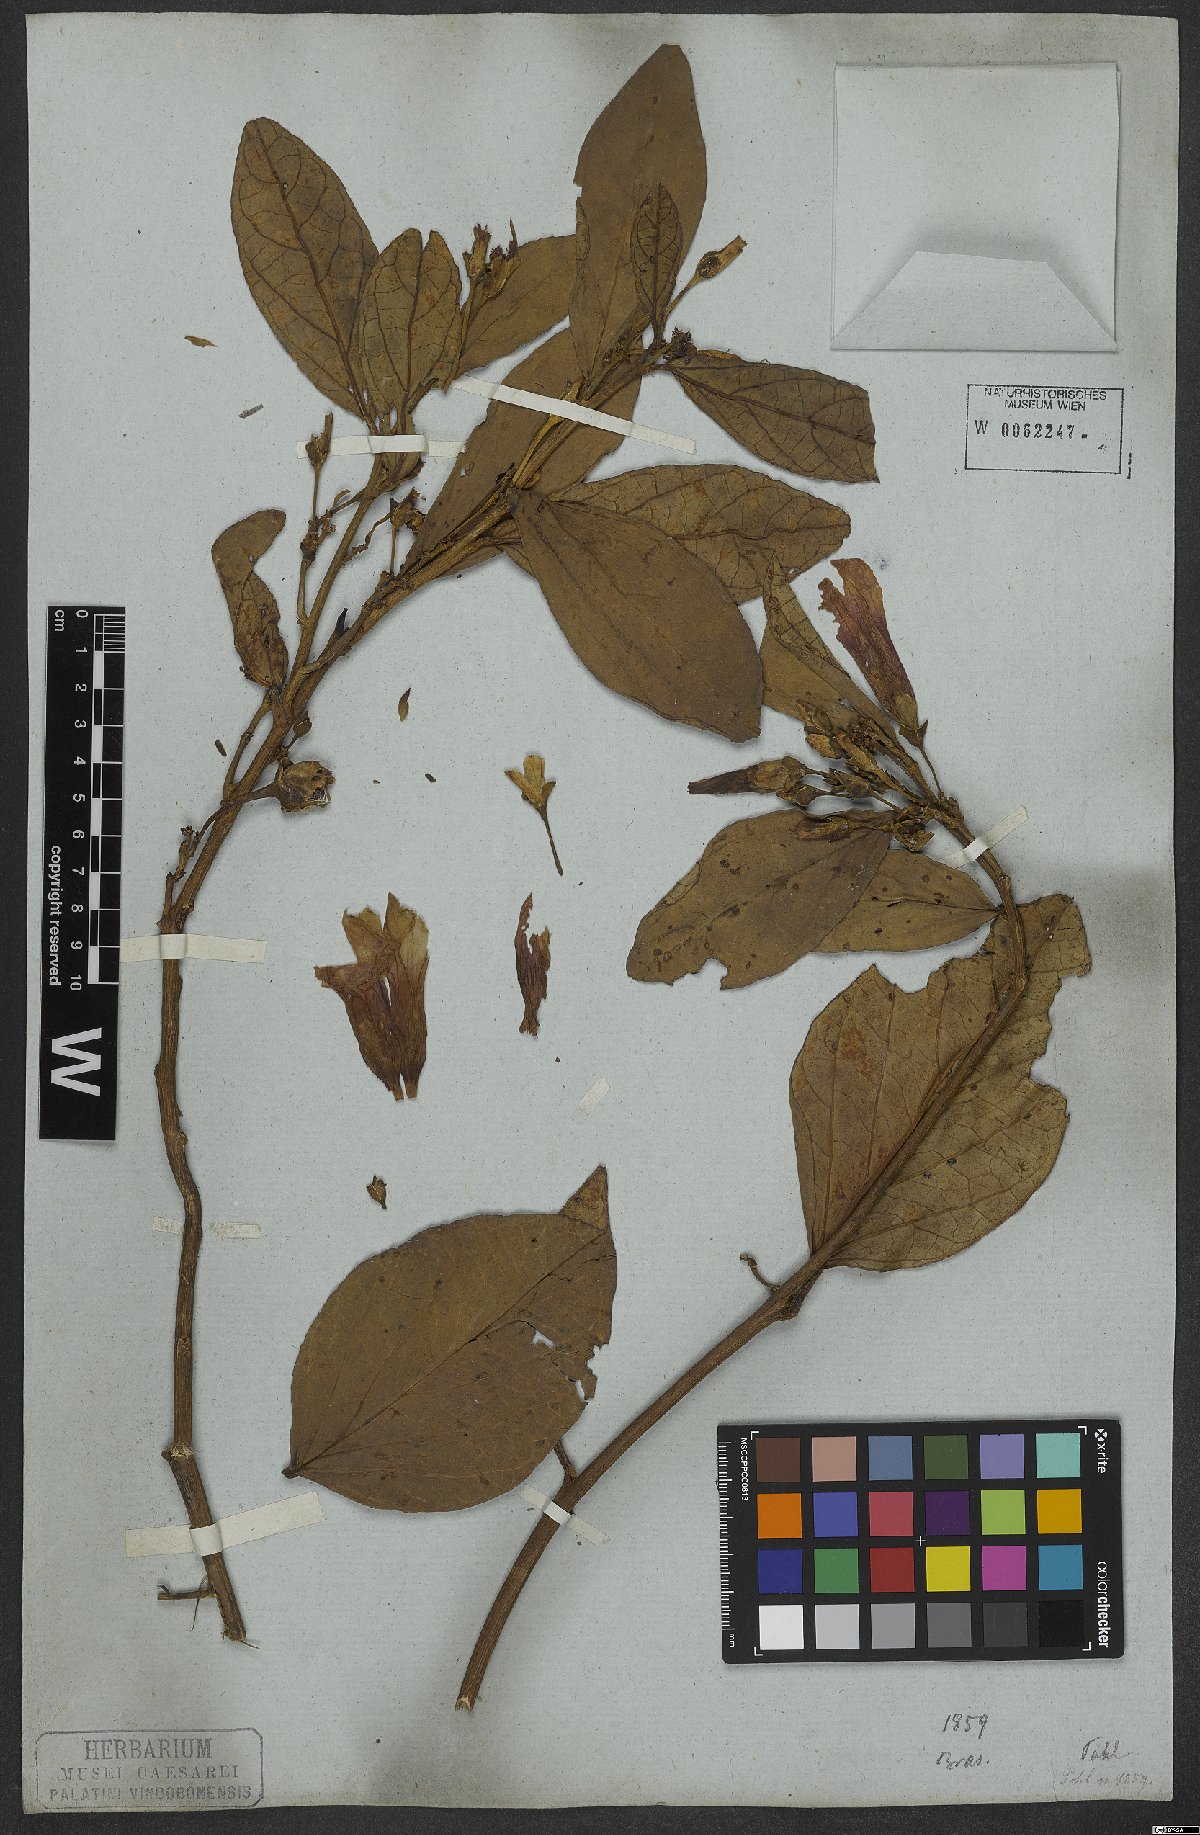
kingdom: Plantae
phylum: Tracheophyta
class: Magnoliopsida
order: Solanales
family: Convolvulaceae
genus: Ipomoea
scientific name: Ipomoea coriacea
